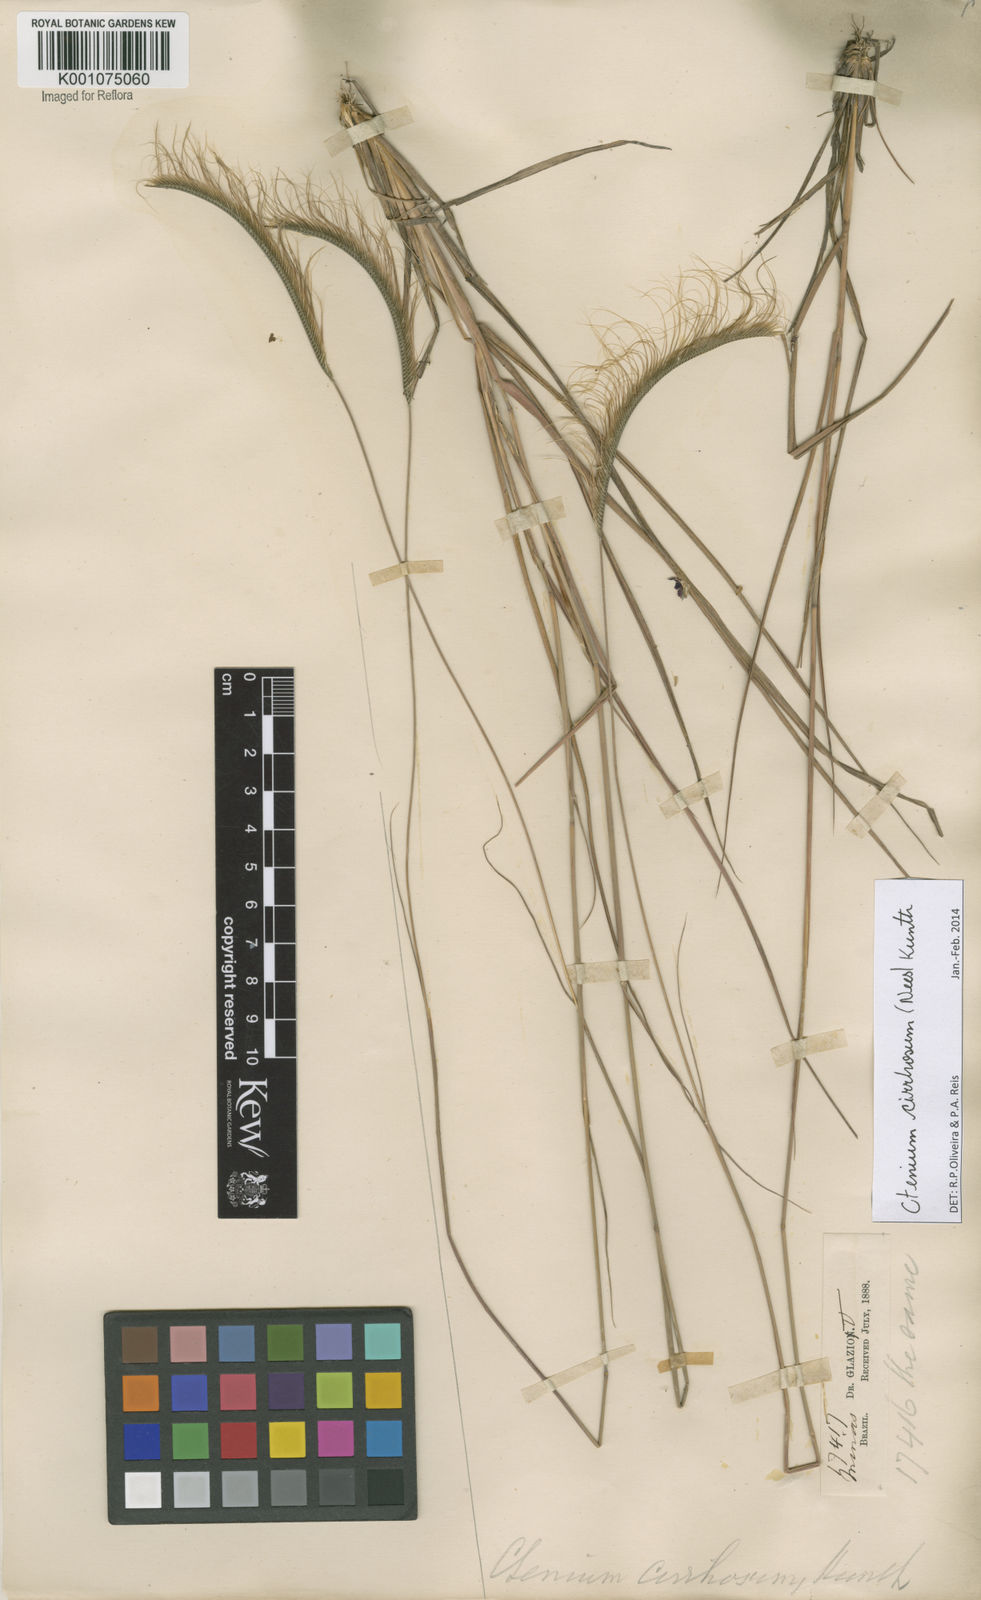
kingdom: Plantae
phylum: Tracheophyta
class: Liliopsida
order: Poales
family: Poaceae
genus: Ctenium
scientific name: Ctenium cirrhosum
